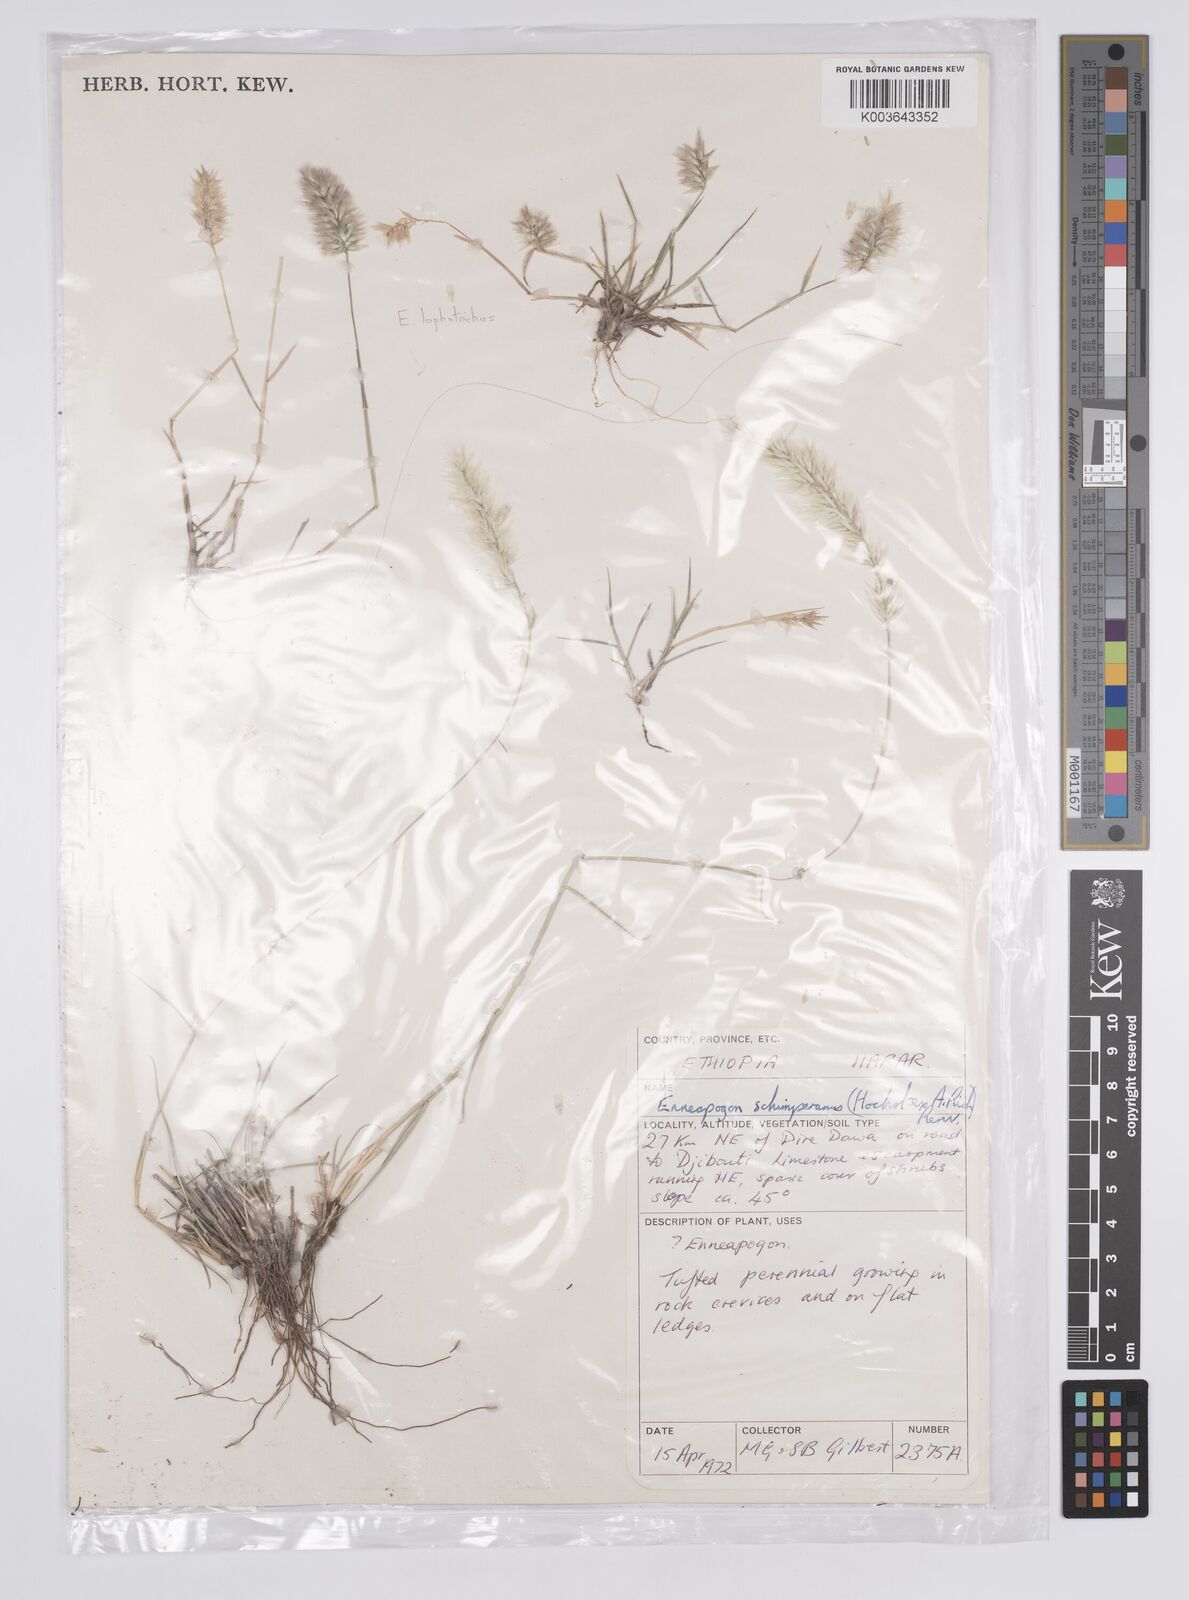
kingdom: Plantae
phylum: Tracheophyta
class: Liliopsida
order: Poales
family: Poaceae
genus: Enneapogon
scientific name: Enneapogon lophotrichus
